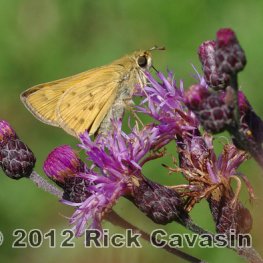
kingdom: Animalia
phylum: Arthropoda
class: Insecta
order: Lepidoptera
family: Hesperiidae
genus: Hylephila
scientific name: Hylephila phyleus
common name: Fiery Skipper
